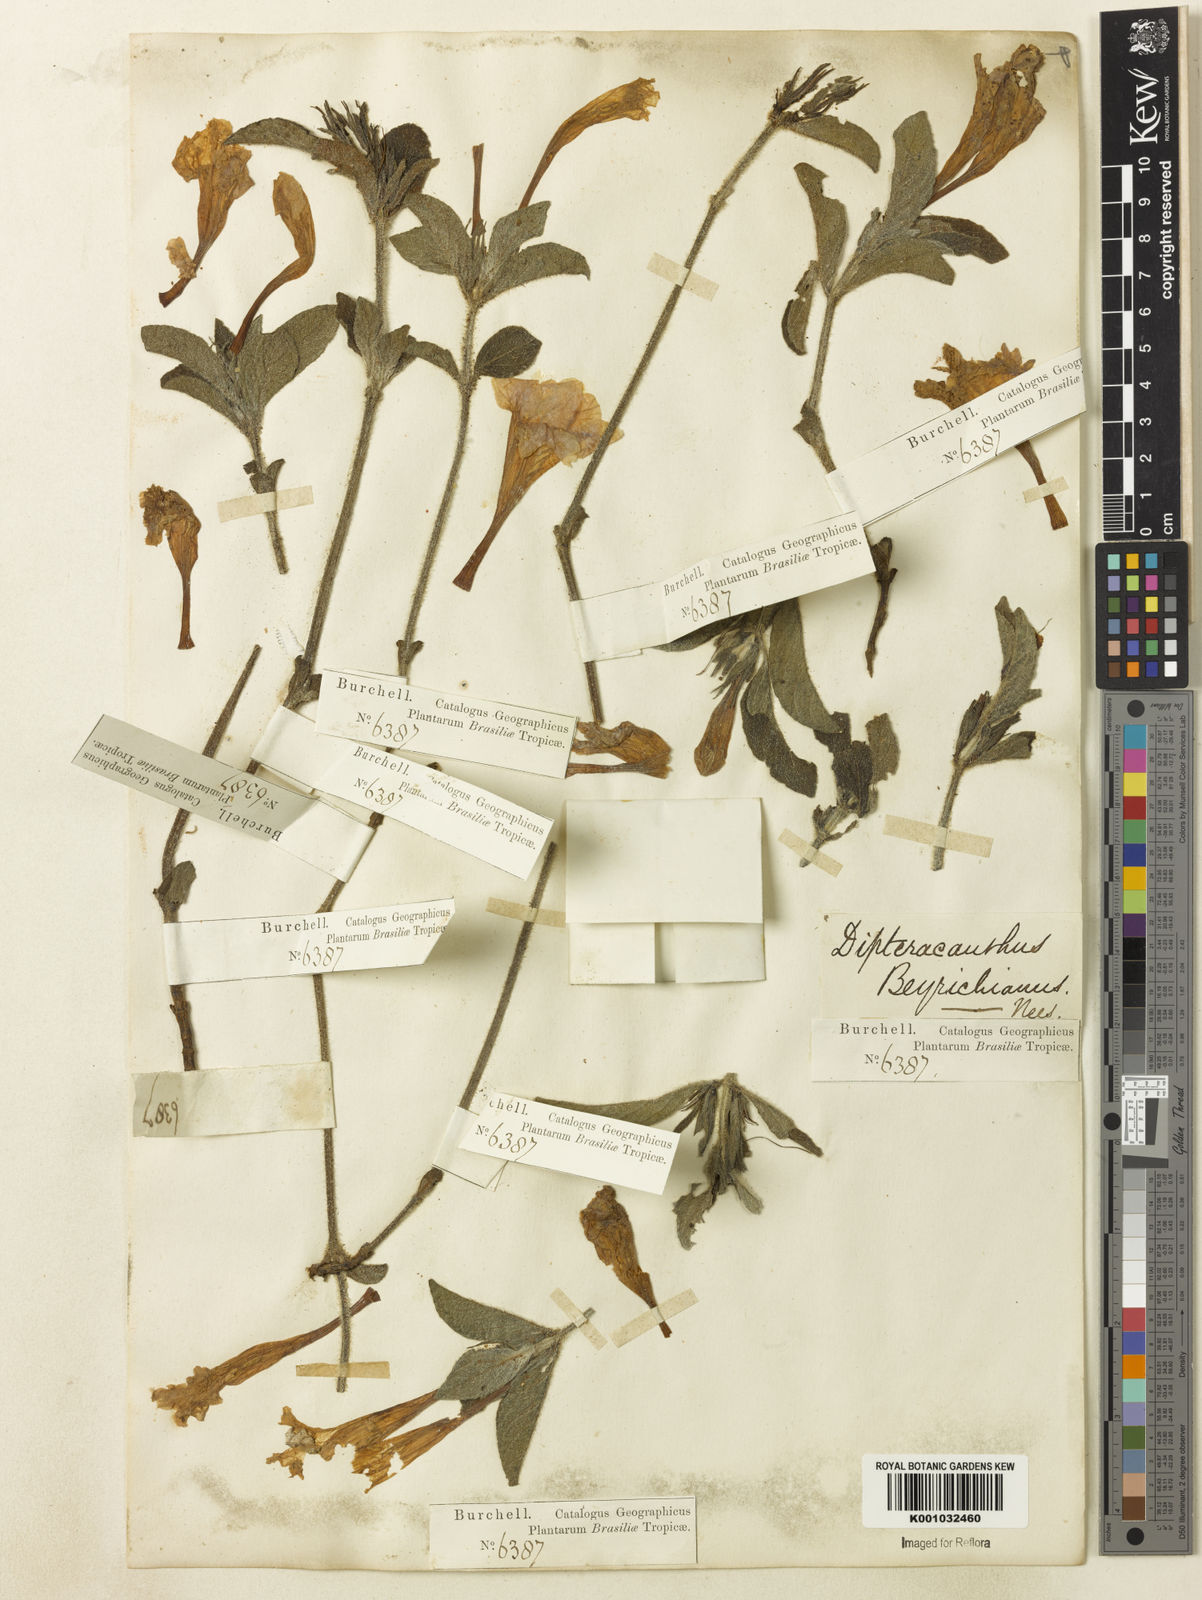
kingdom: Plantae
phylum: Tracheophyta
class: Magnoliopsida
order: Lamiales
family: Acanthaceae
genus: Ruellia
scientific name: Ruellia beyrichiana
